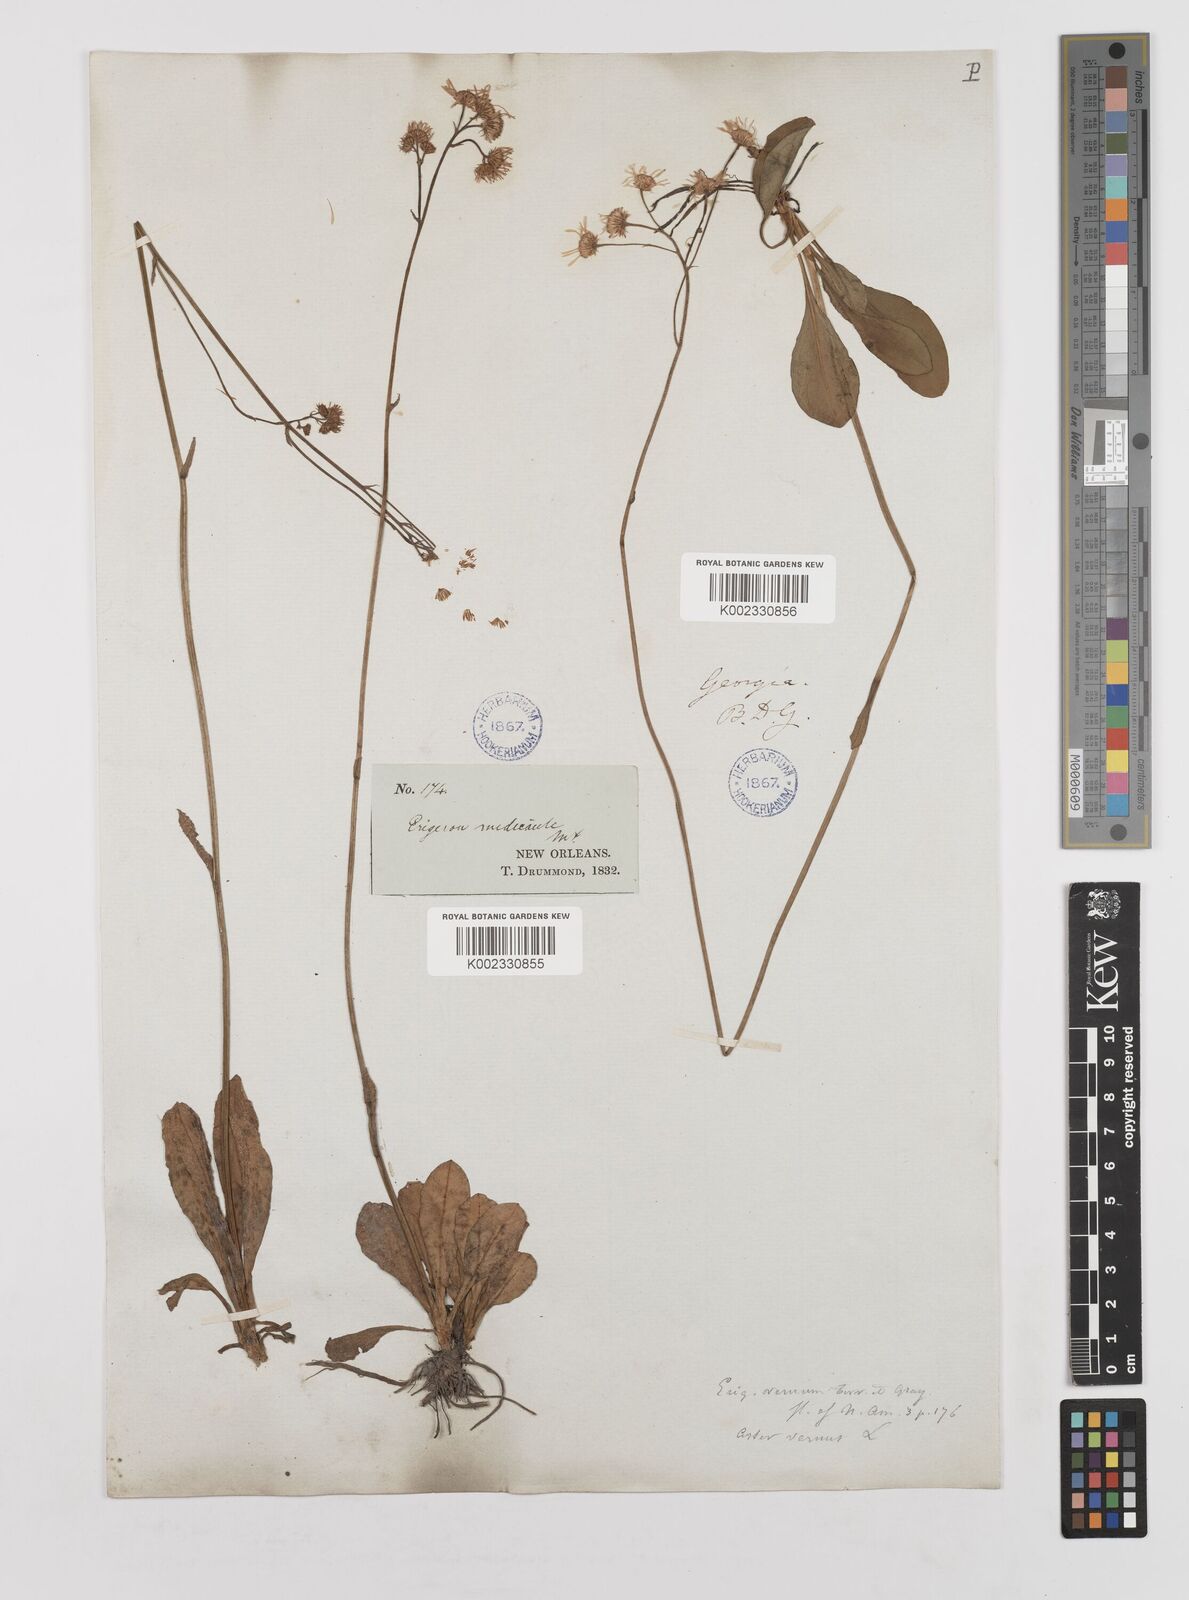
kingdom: Plantae
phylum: Tracheophyta
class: Magnoliopsida
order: Asterales
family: Asteraceae
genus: Erigeron
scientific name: Erigeron vernus
